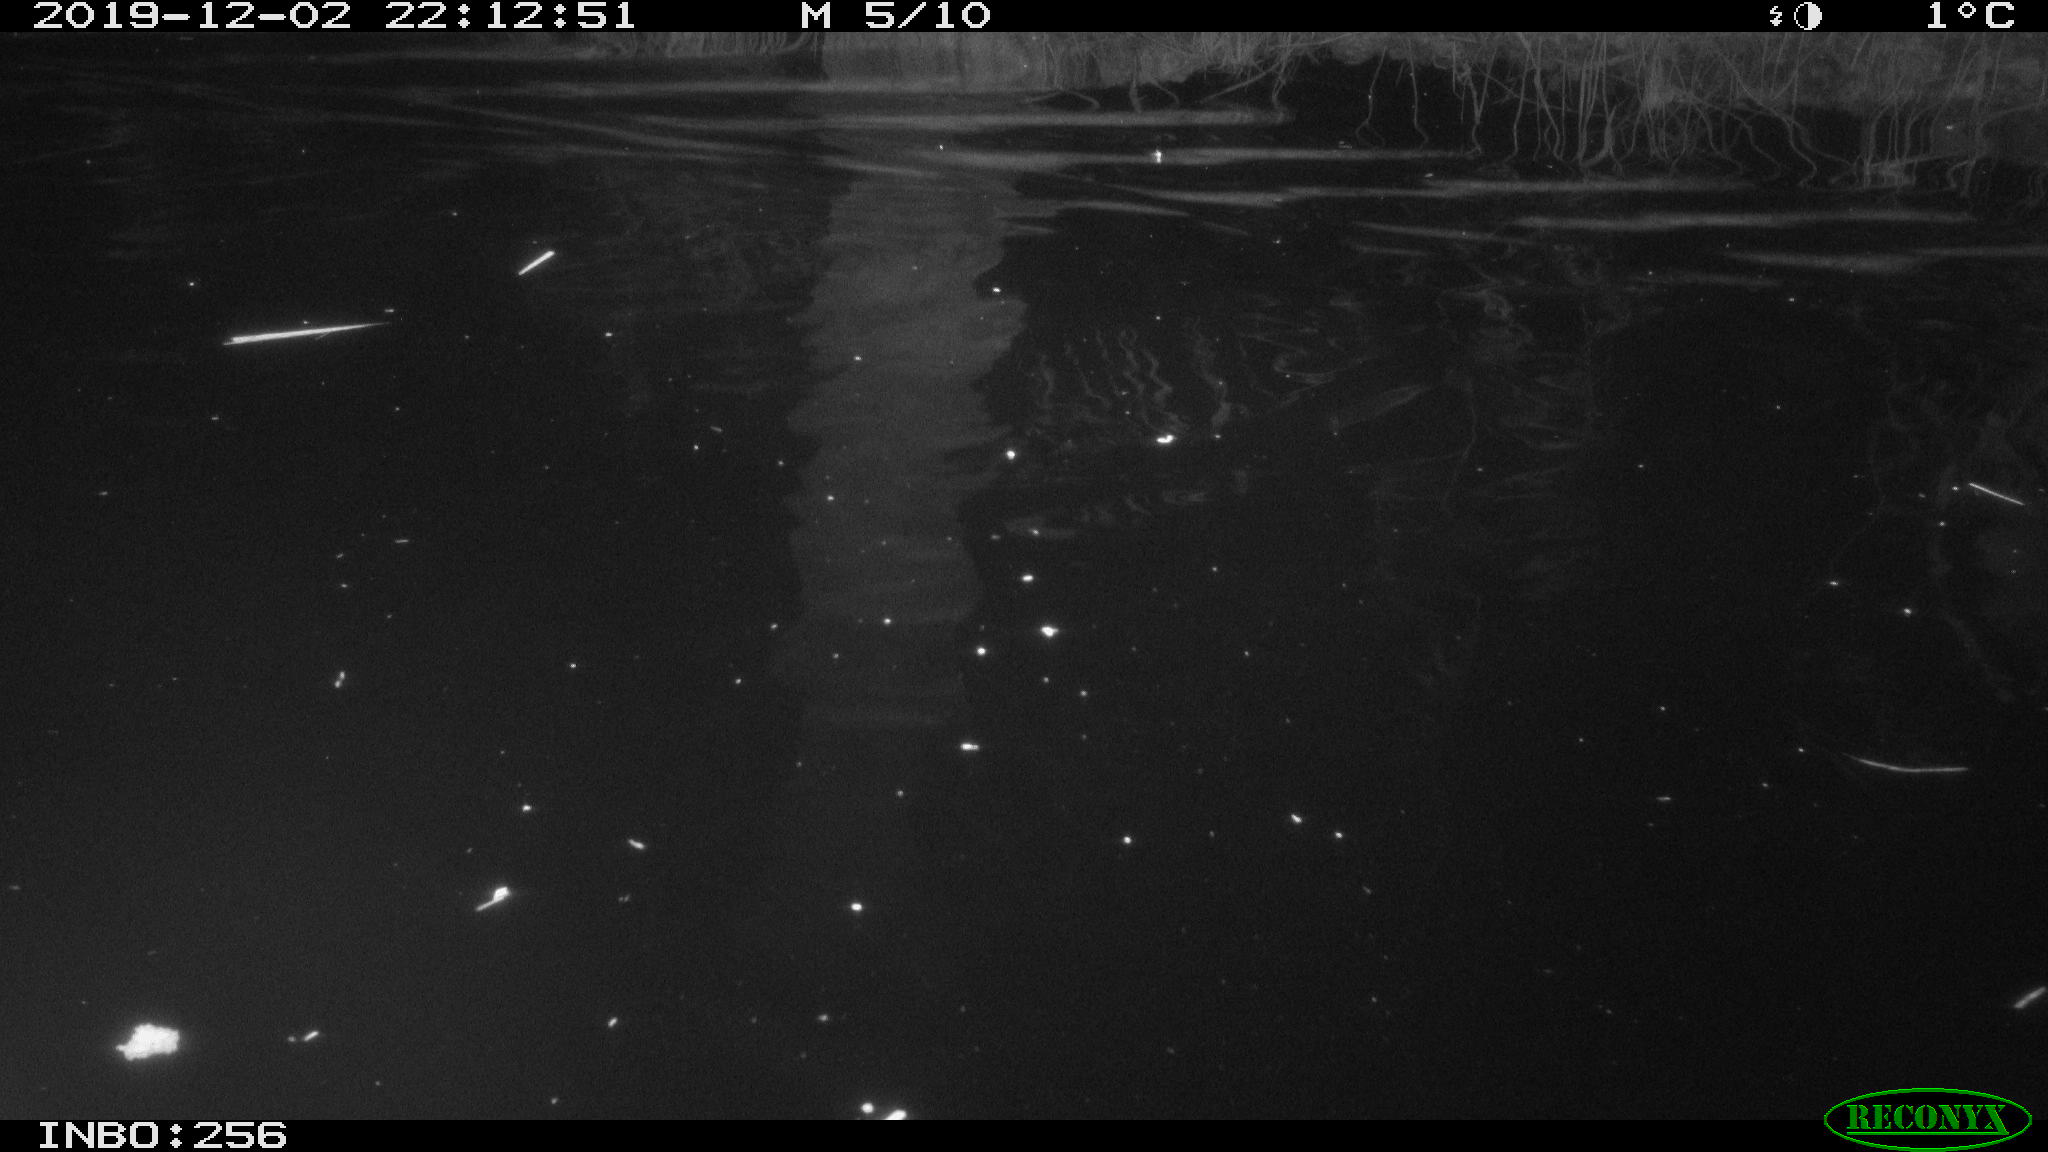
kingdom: Animalia
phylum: Chordata
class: Mammalia
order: Rodentia
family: Cricetidae
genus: Ondatra
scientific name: Ondatra zibethicus
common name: Muskrat
